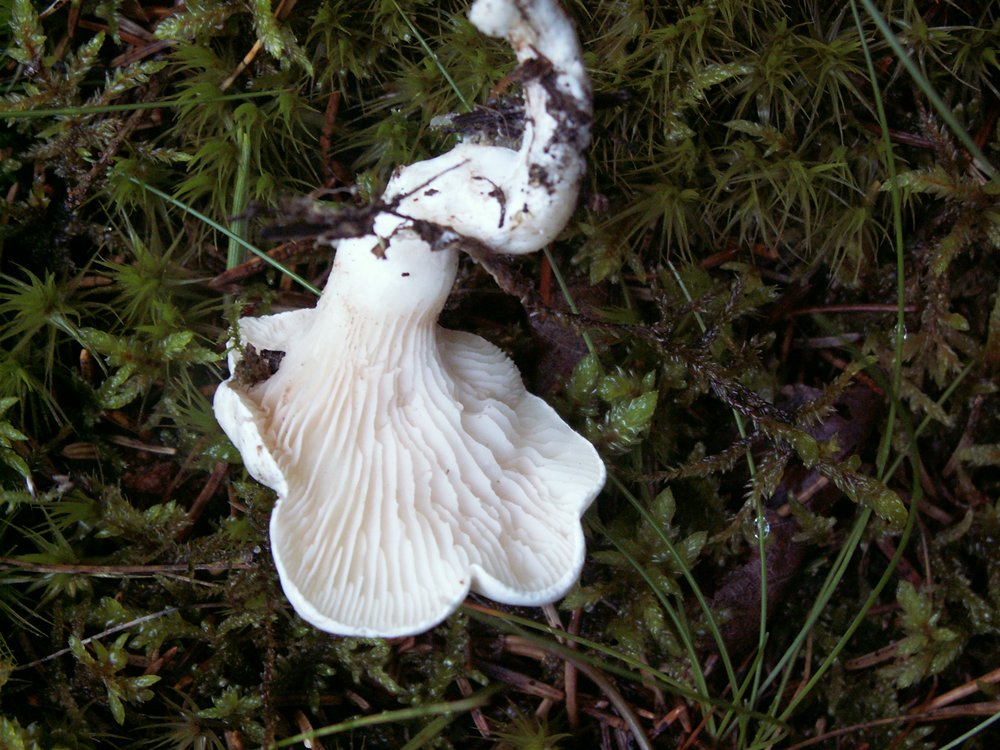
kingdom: Fungi
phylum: Basidiomycota
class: Agaricomycetes
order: Agaricales
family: Entolomataceae
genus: Clitopilus
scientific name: Clitopilus prunulus
